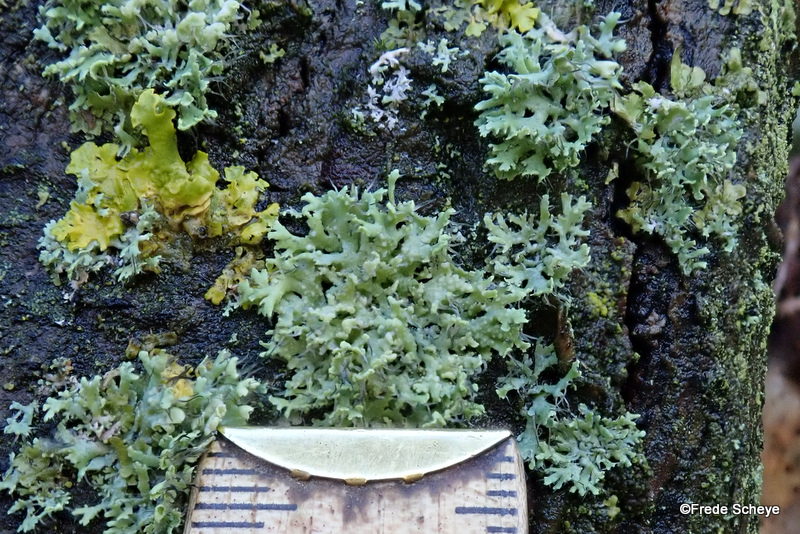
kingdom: Fungi
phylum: Ascomycota
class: Lecanoromycetes
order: Caliciales
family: Physciaceae
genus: Physcia
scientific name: Physcia tenella
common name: spæd rosetlav
